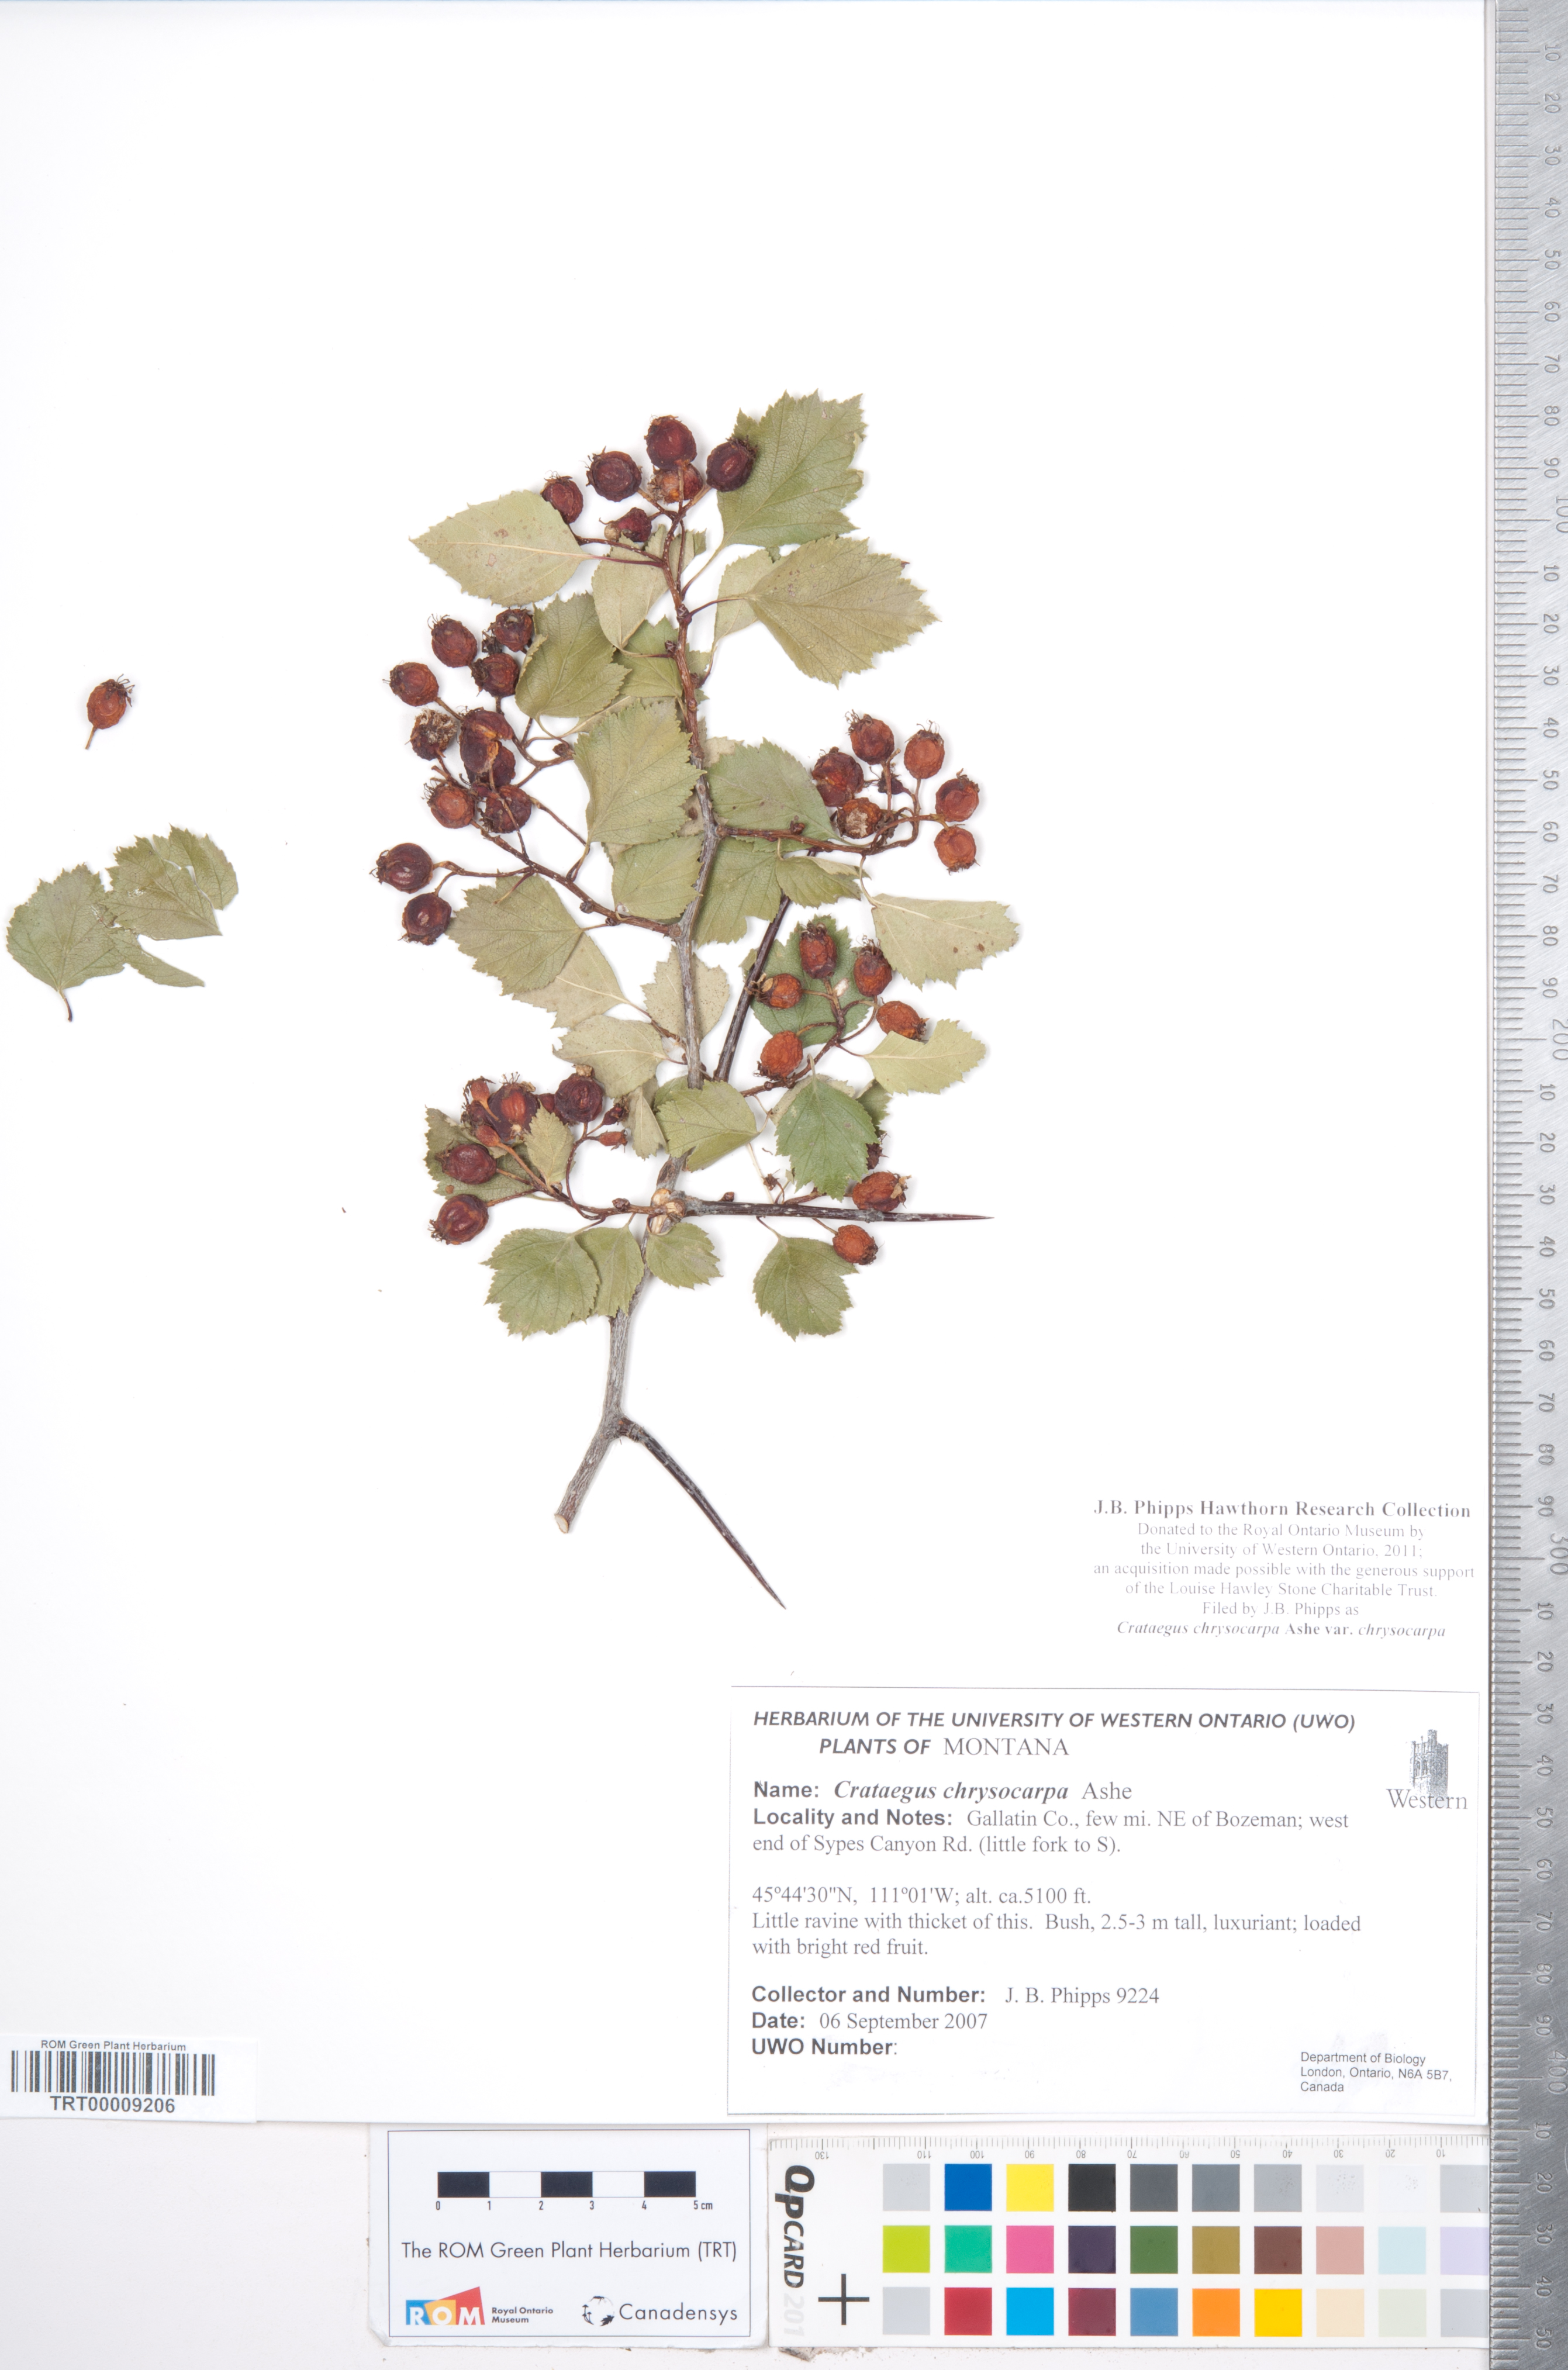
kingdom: Plantae
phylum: Tracheophyta
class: Magnoliopsida
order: Rosales
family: Rosaceae
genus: Crataegus
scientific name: Crataegus chrysocarpa
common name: Fire-berry hawthorn
